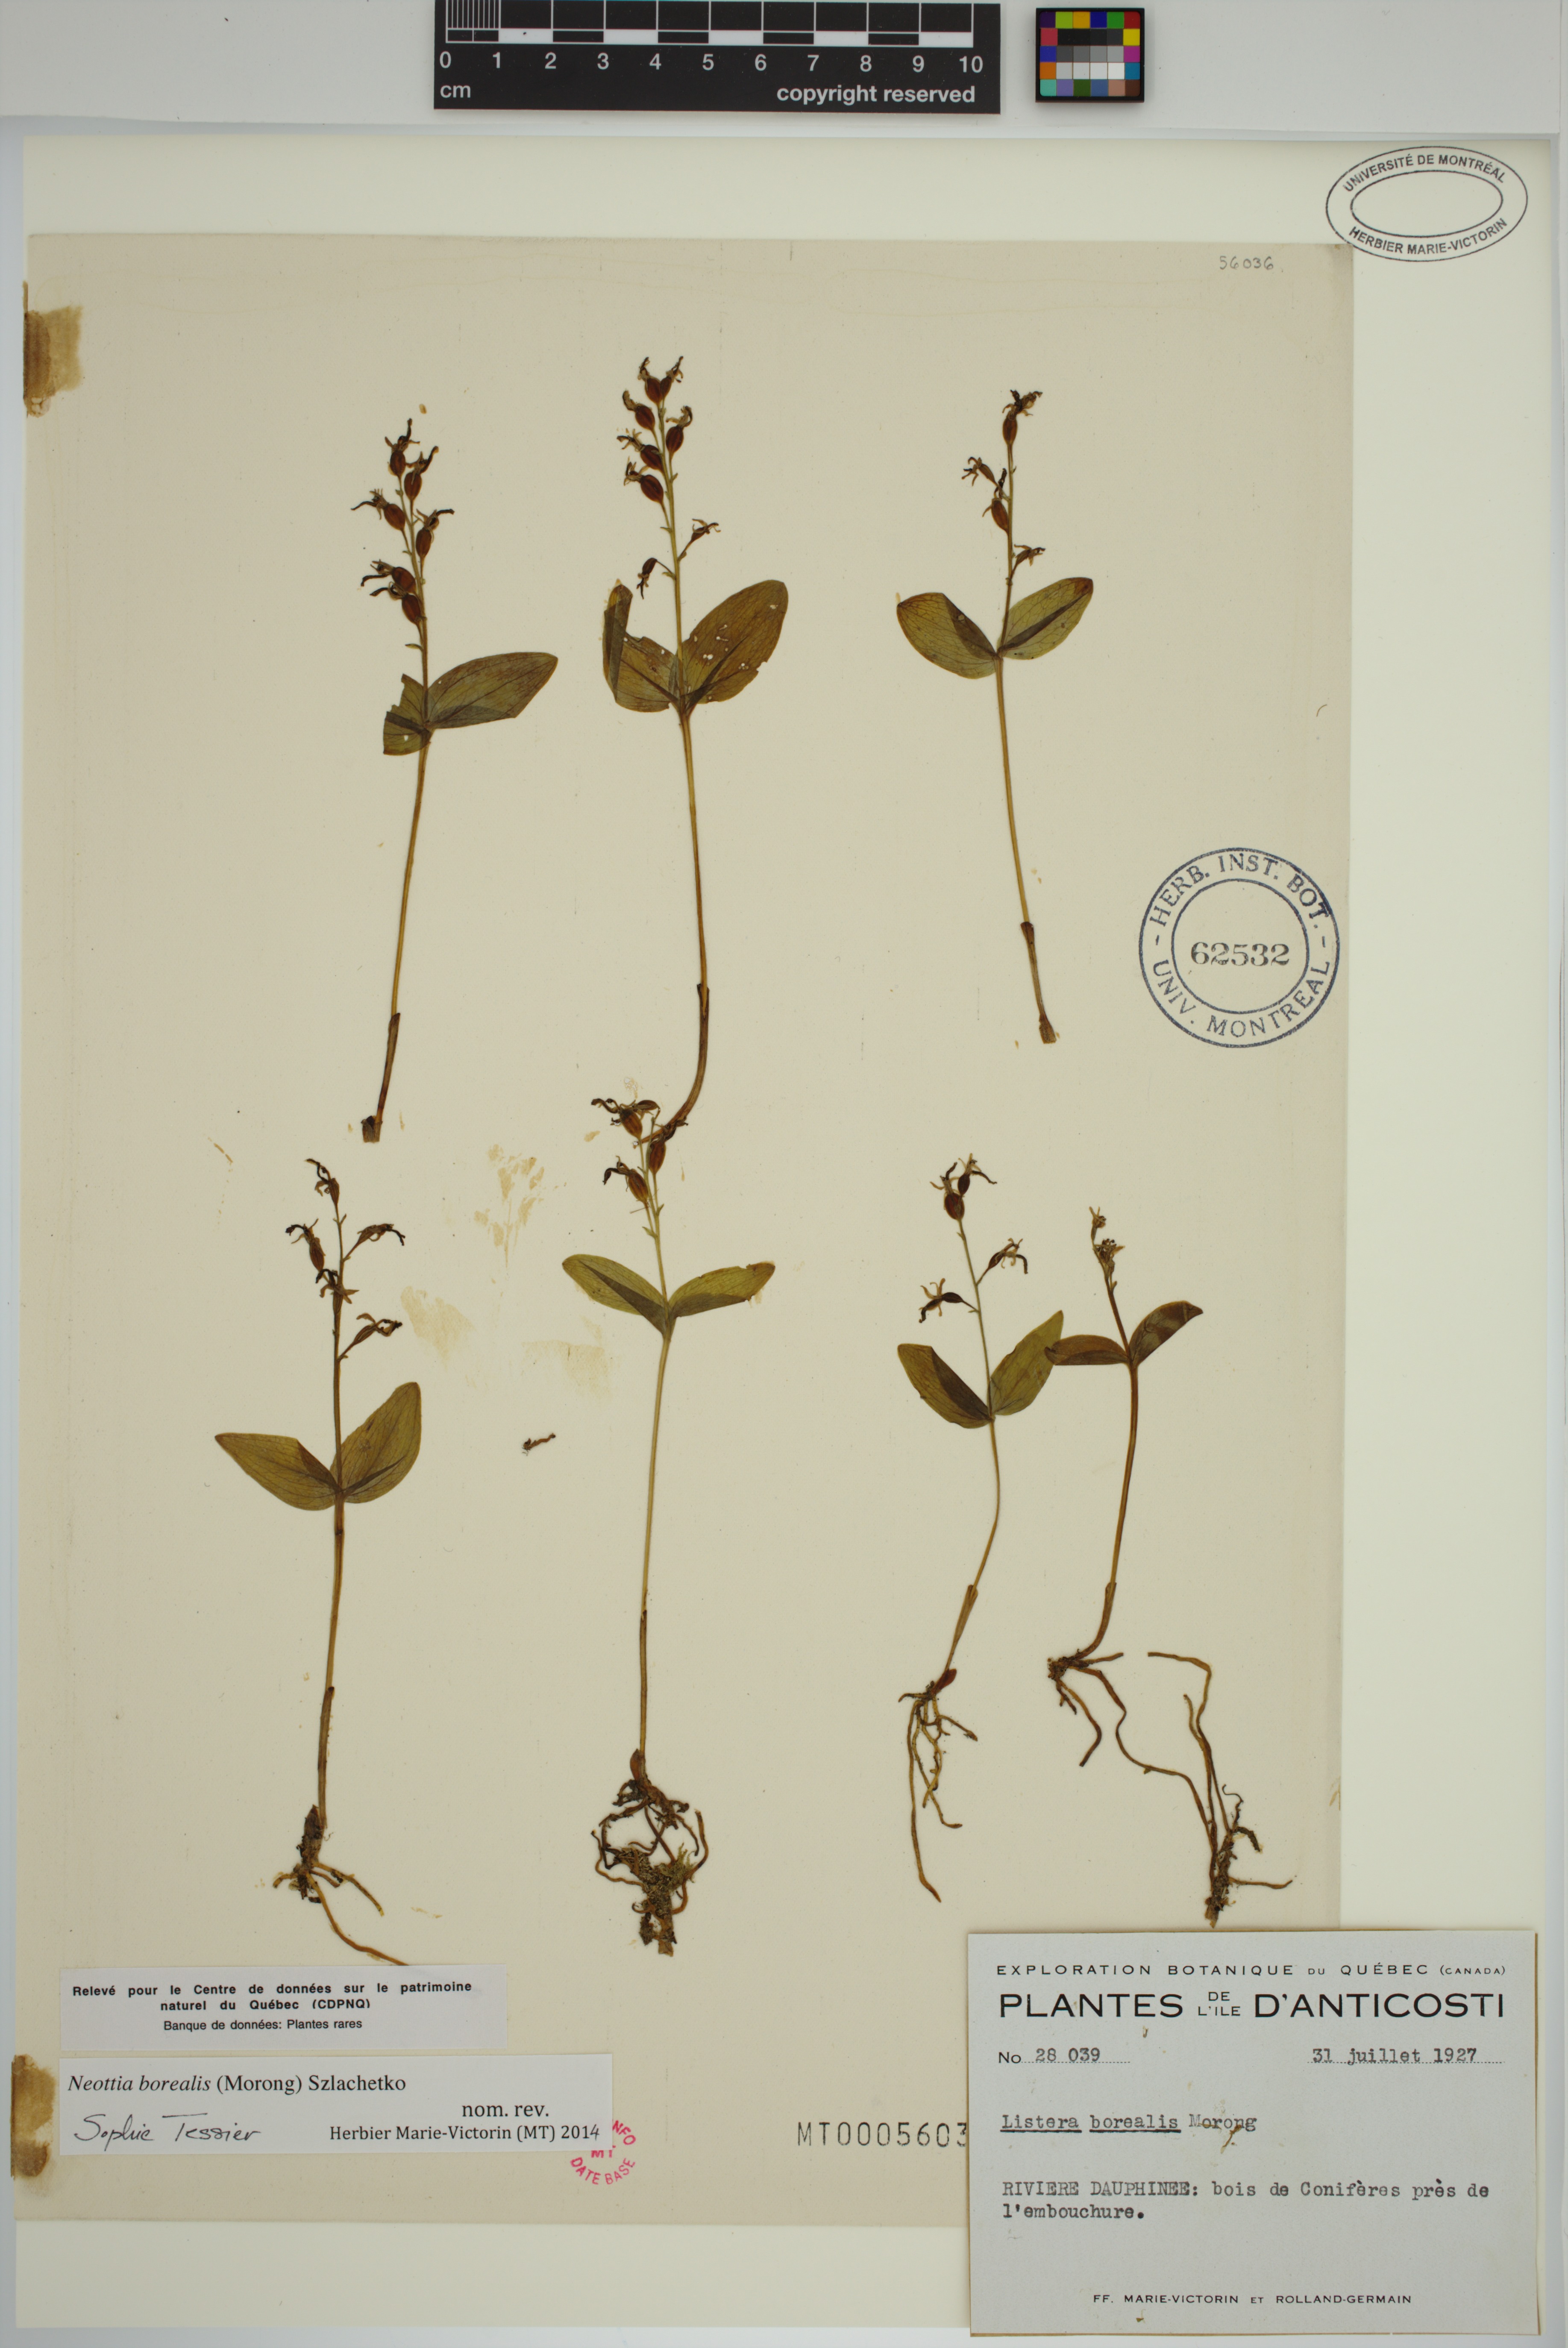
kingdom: Plantae
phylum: Tracheophyta
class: Liliopsida
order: Asparagales
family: Orchidaceae
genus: Neottia
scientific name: Neottia borealis
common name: Northern twayblade
